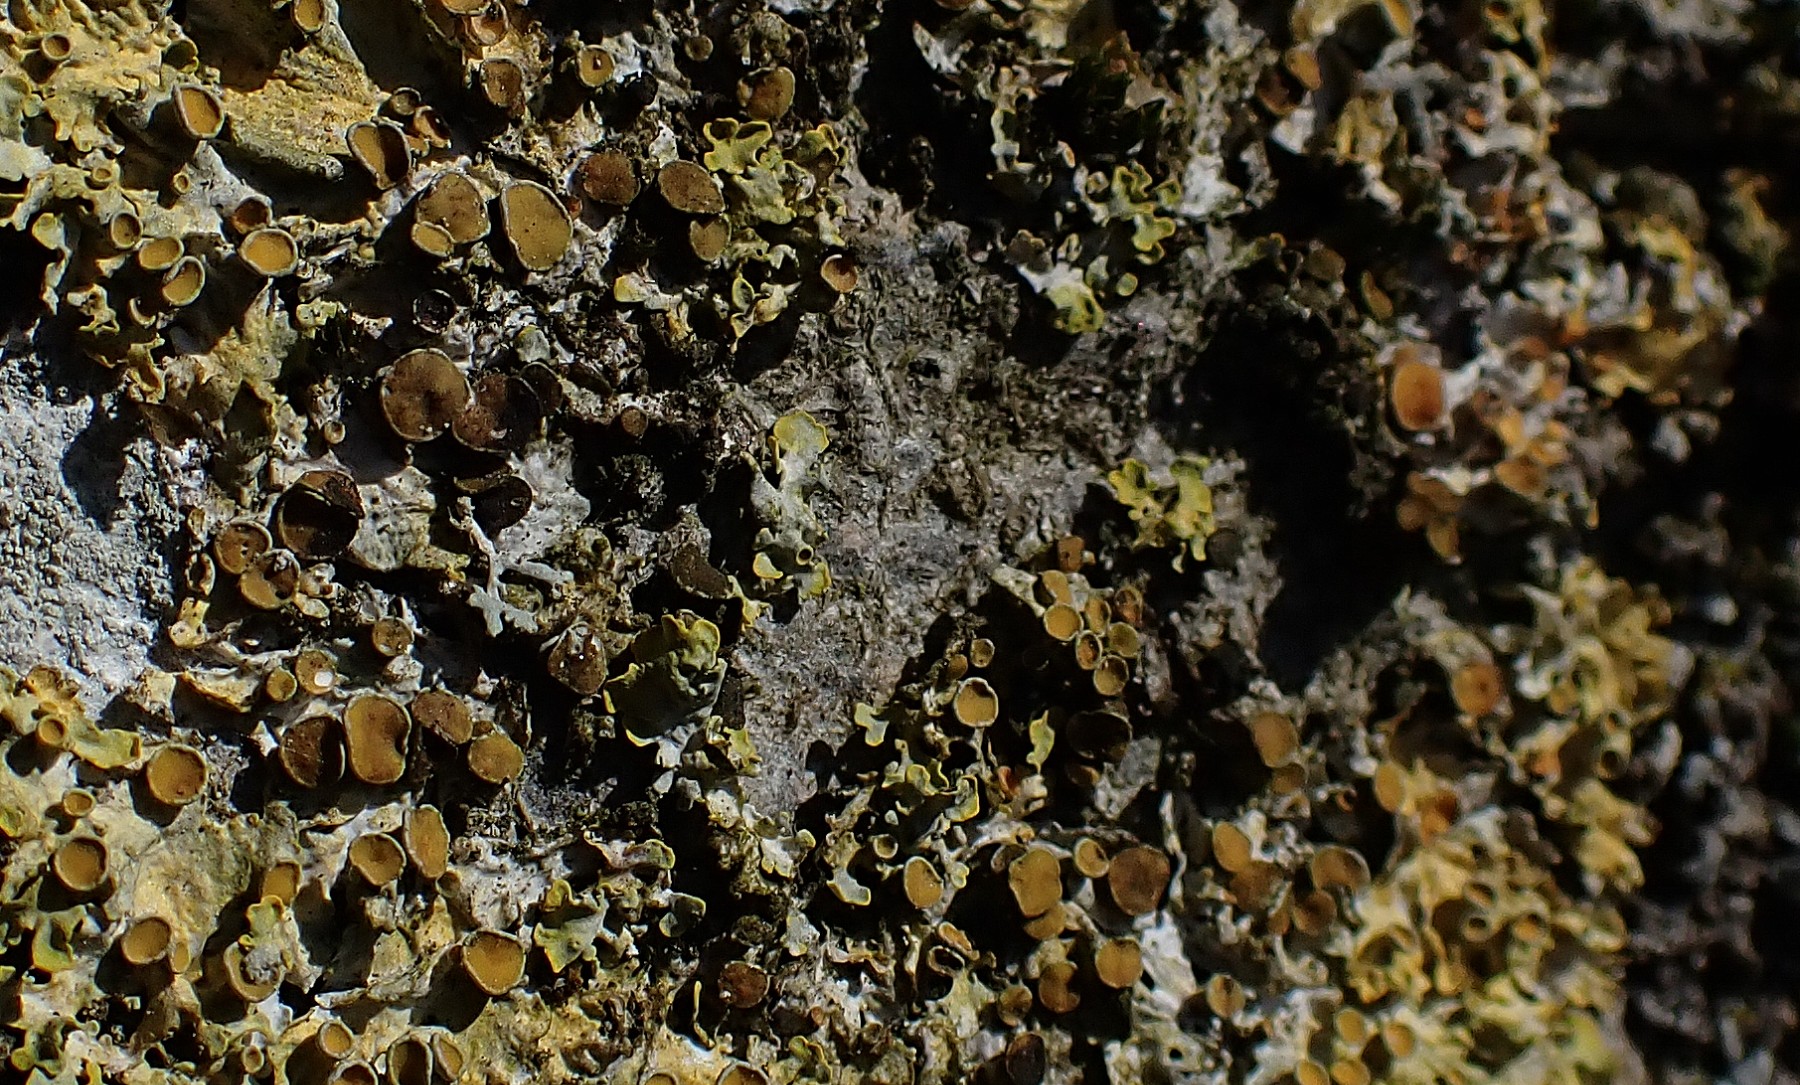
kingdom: Fungi
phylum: Ascomycota
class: Dothideomycetes
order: Mycosphaerellales
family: Teratosphaeriaceae
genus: Xanthoriicola
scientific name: Xanthoriicola physciae
